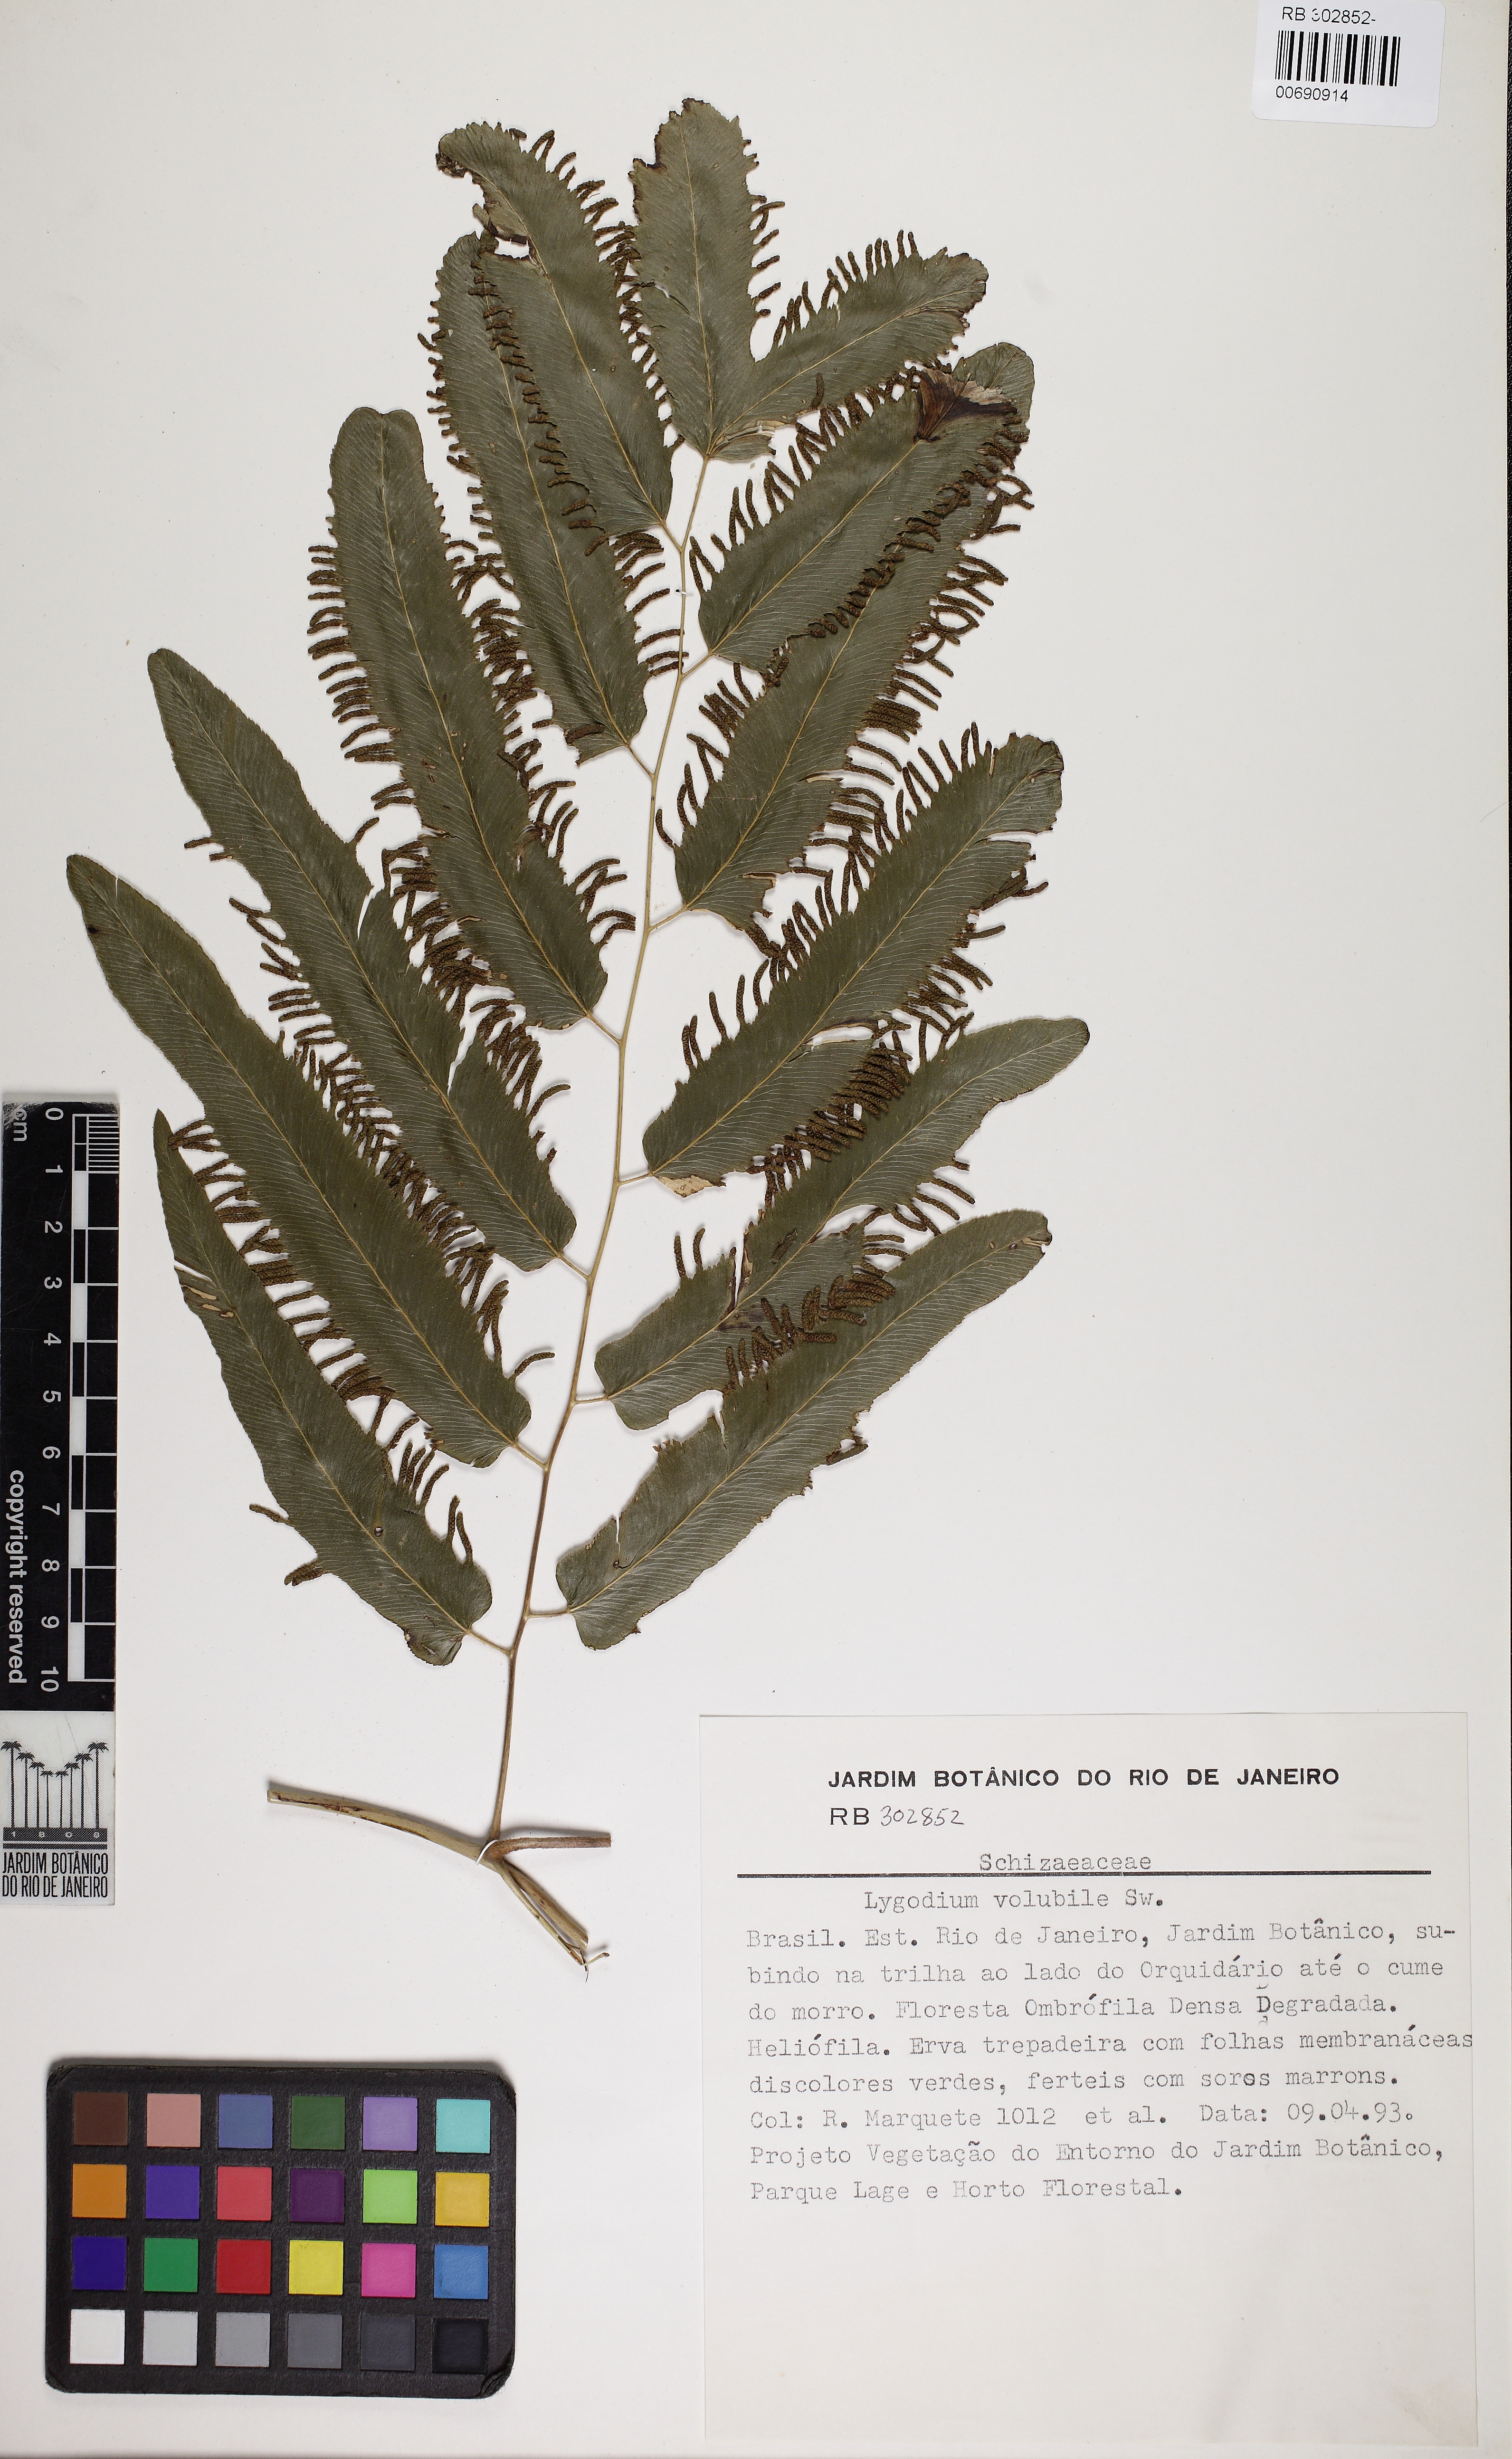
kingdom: Plantae
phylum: Tracheophyta
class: Polypodiopsida
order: Schizaeales
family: Lygodiaceae
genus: Lygodium
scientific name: Lygodium volubile
